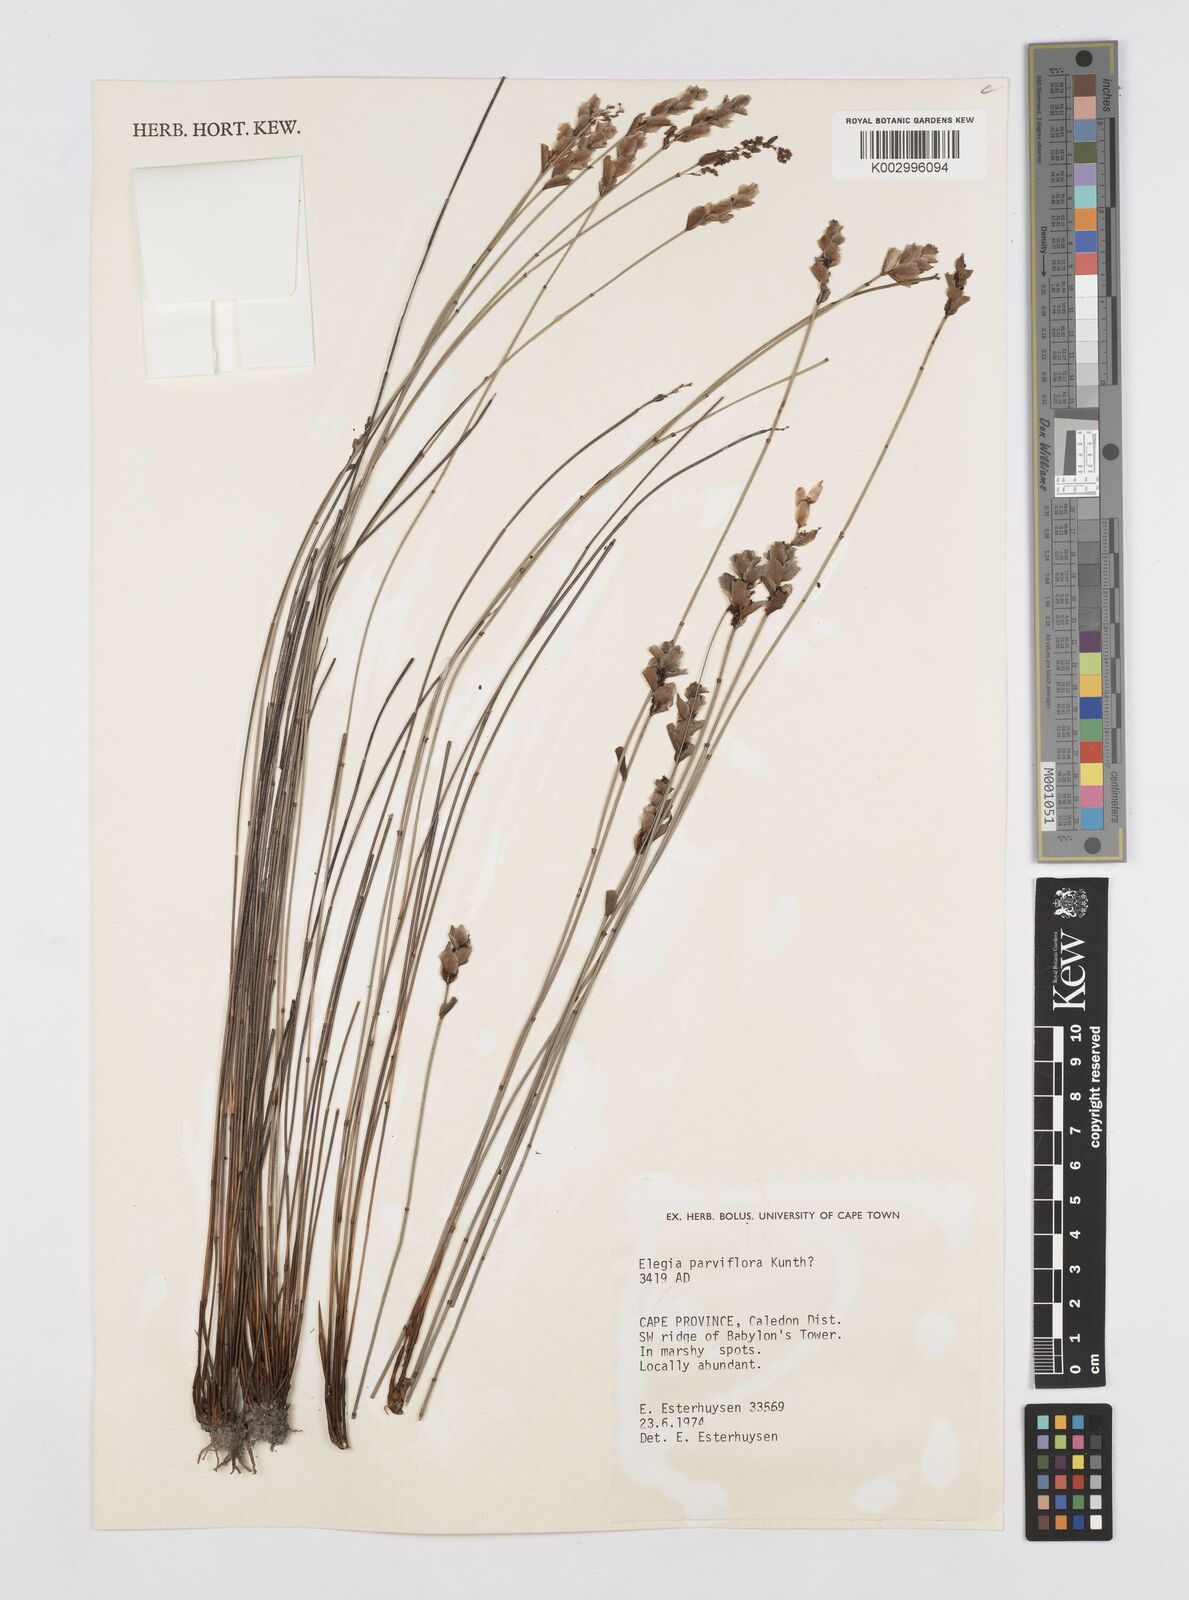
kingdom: Plantae
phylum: Tracheophyta
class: Liliopsida
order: Poales
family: Restionaceae
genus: Cannomois
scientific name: Cannomois parviflora
